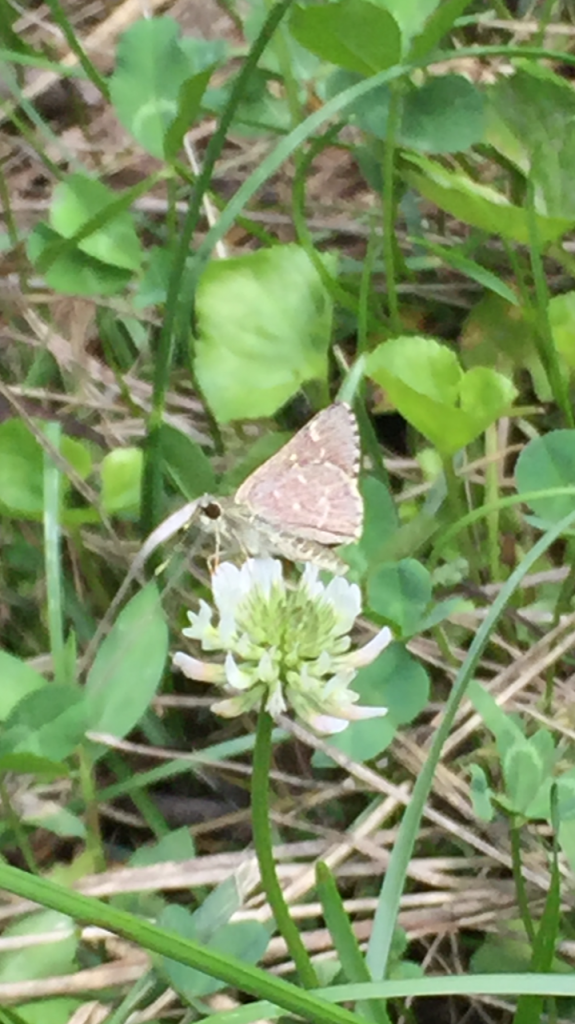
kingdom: Animalia
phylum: Arthropoda
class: Insecta
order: Lepidoptera
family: Hesperiidae
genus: Mastor
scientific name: Mastor hegon
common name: Pepper and Salt Skipper
